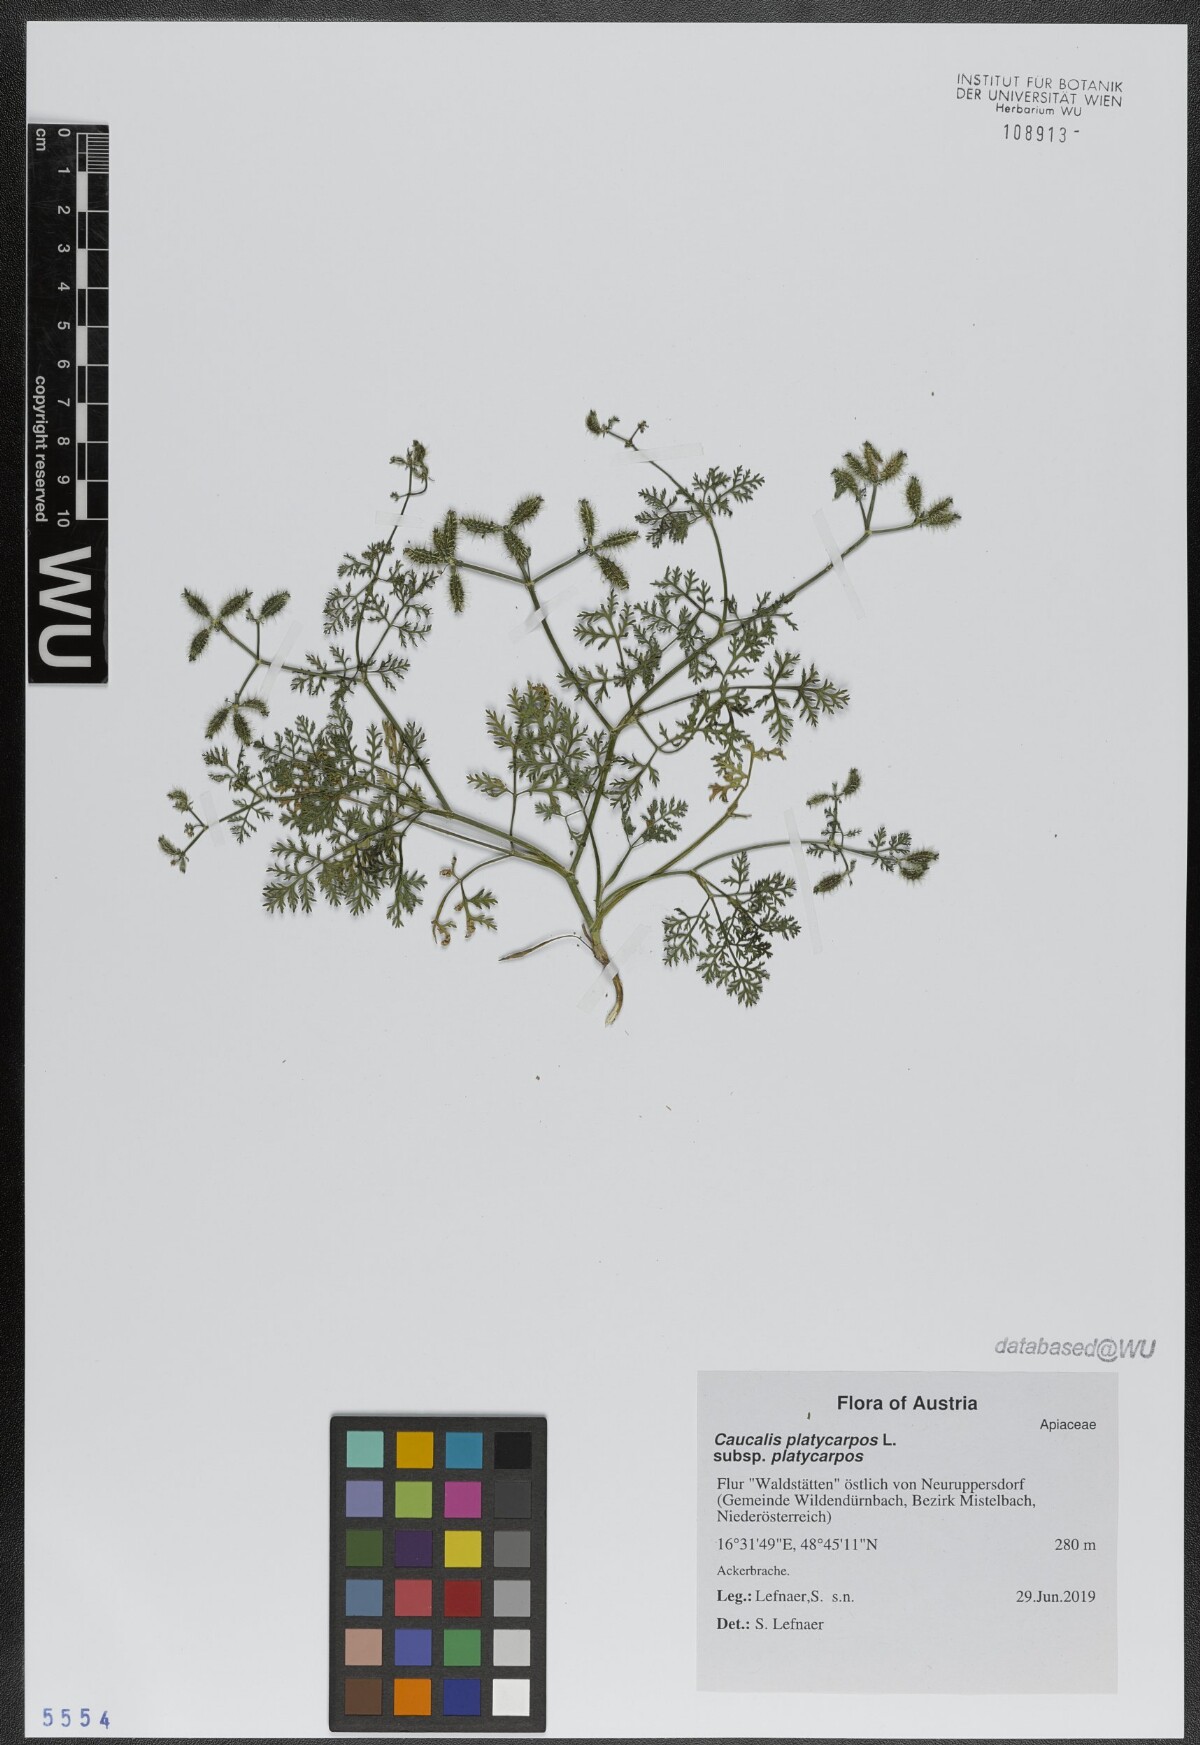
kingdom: Plantae
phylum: Tracheophyta
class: Magnoliopsida
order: Apiales
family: Apiaceae
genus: Caucalis
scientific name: Caucalis platycarpos
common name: Small bur-parsley
